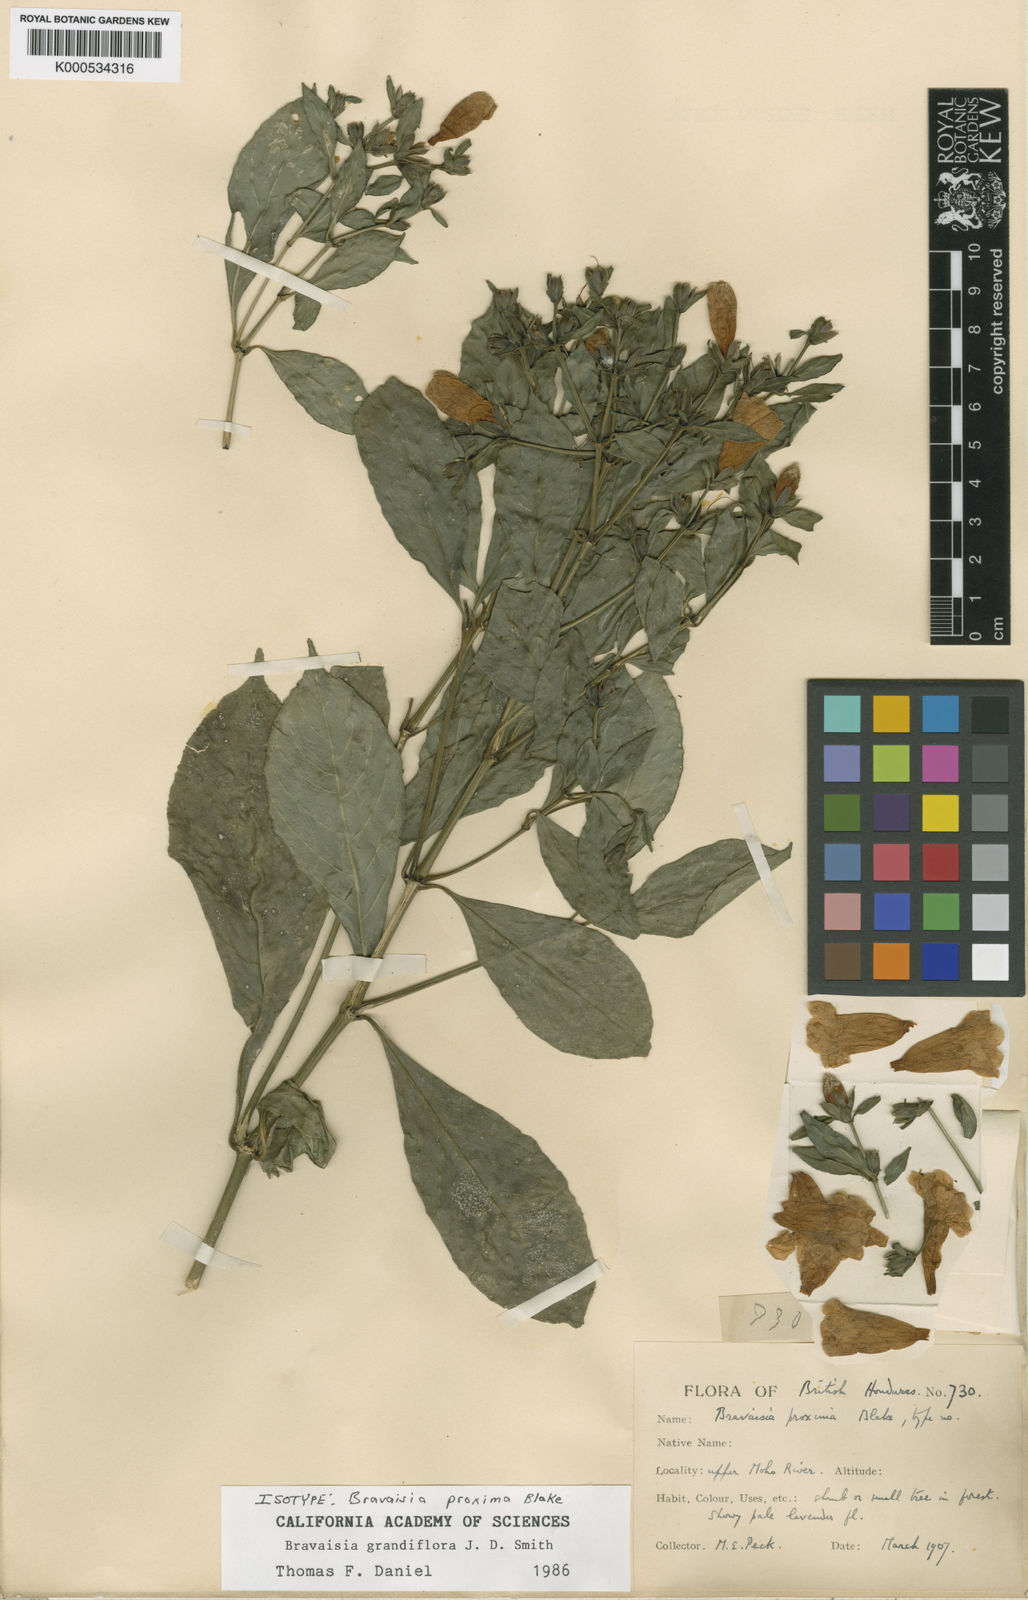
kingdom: Plantae
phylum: Tracheophyta
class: Magnoliopsida
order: Lamiales
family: Acanthaceae
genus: Bravaisia
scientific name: Bravaisia grandiflora
